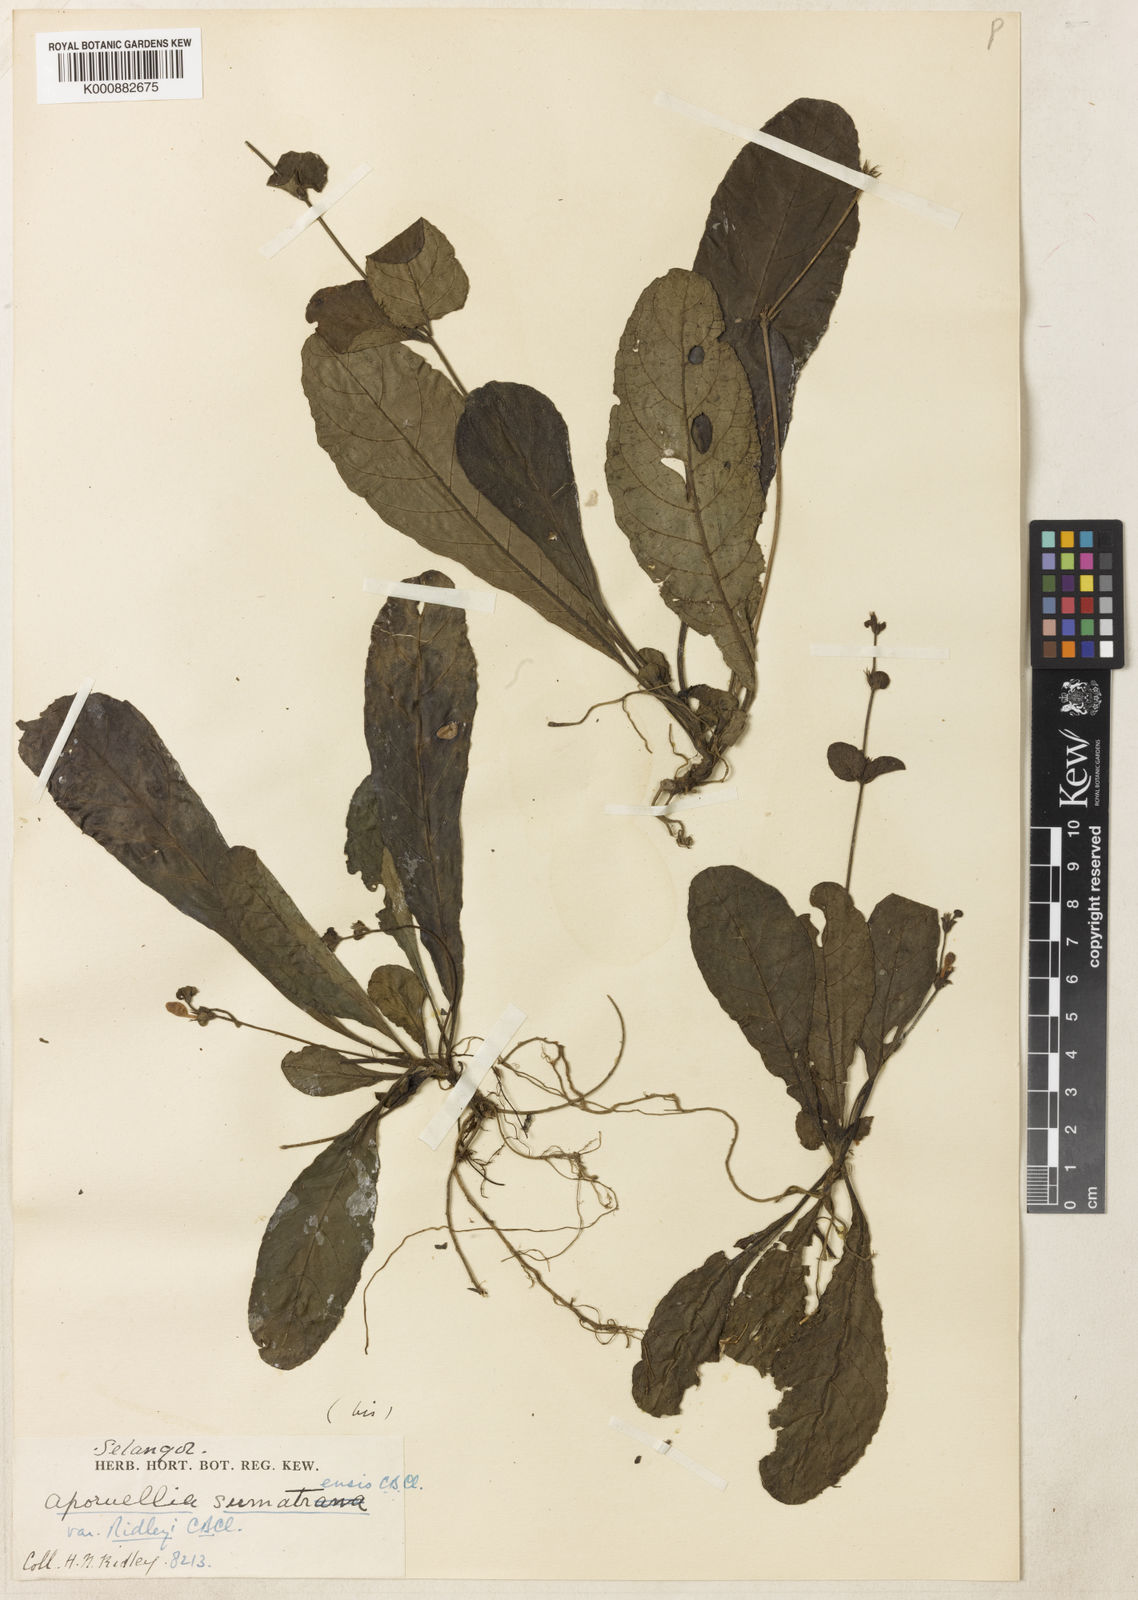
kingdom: Plantae
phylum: Tracheophyta
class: Magnoliopsida
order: Lamiales
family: Acanthaceae
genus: Pararuellia
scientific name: Pararuellia sumatrensis
